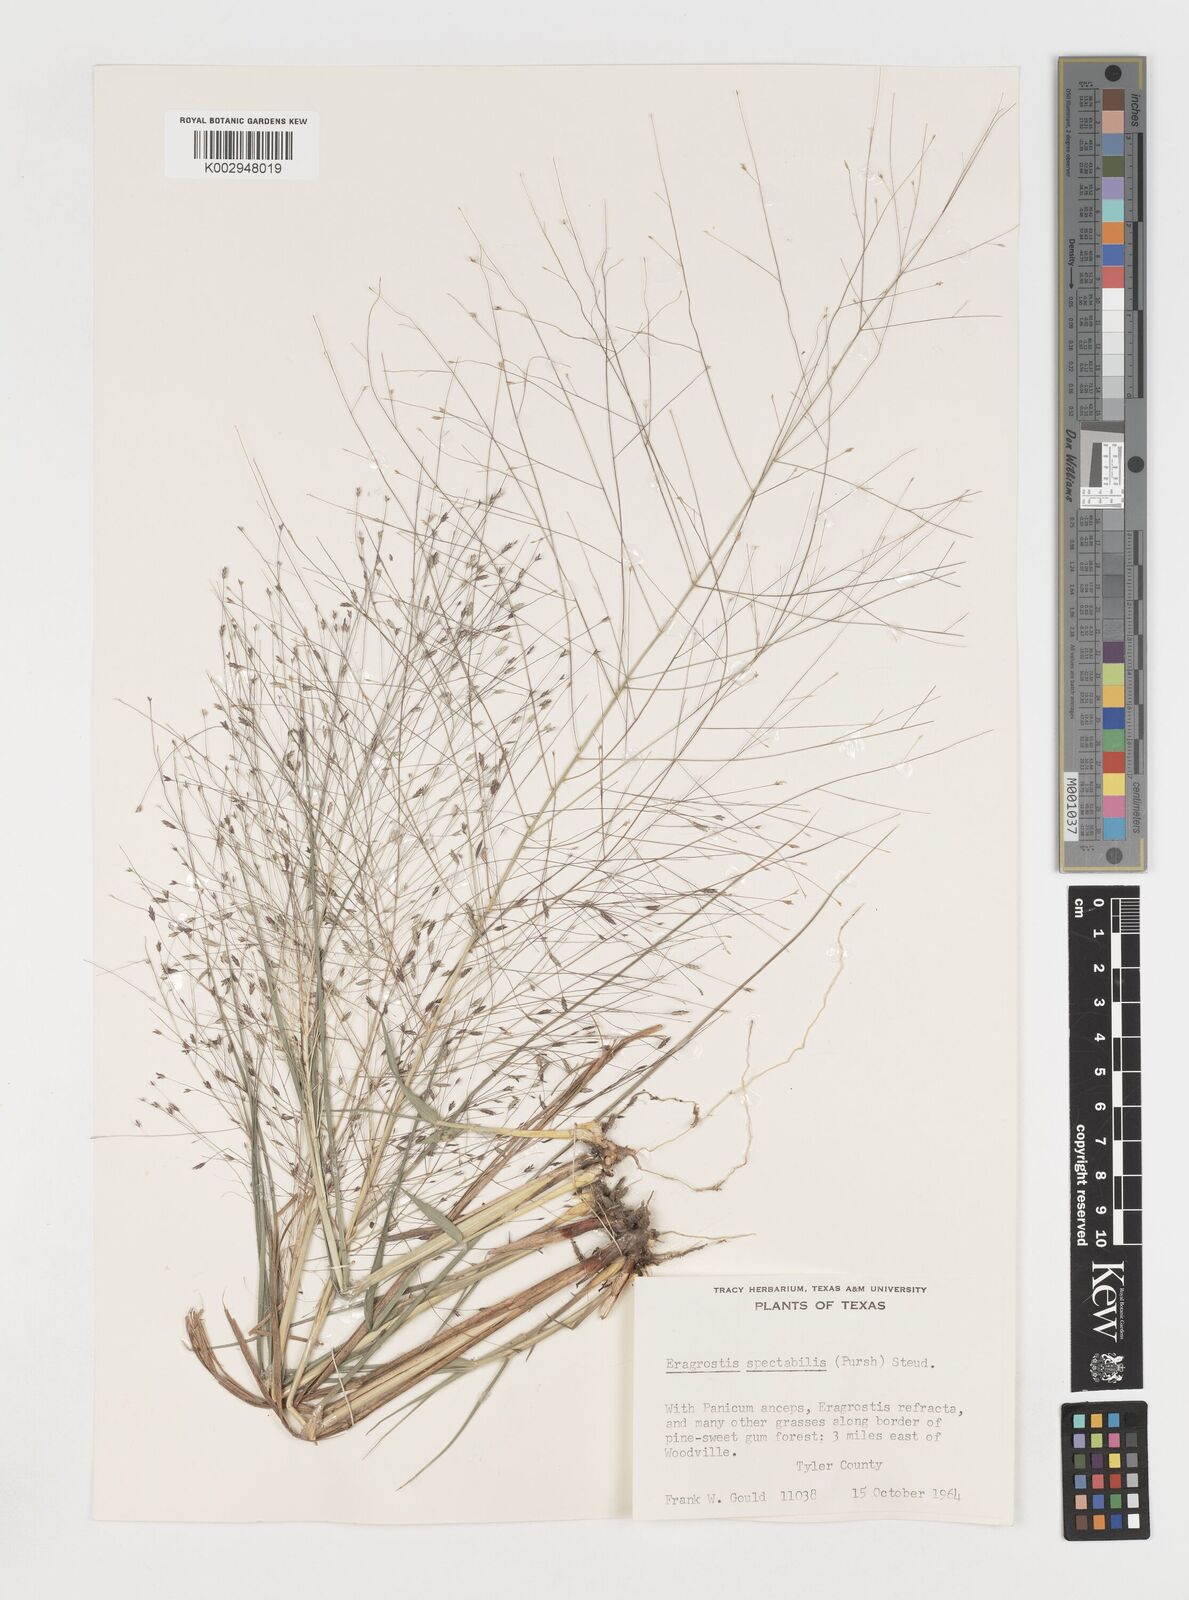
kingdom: Plantae
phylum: Tracheophyta
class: Liliopsida
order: Poales
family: Poaceae
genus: Eragrostis
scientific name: Eragrostis spectabilis
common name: Petticoat-climber
